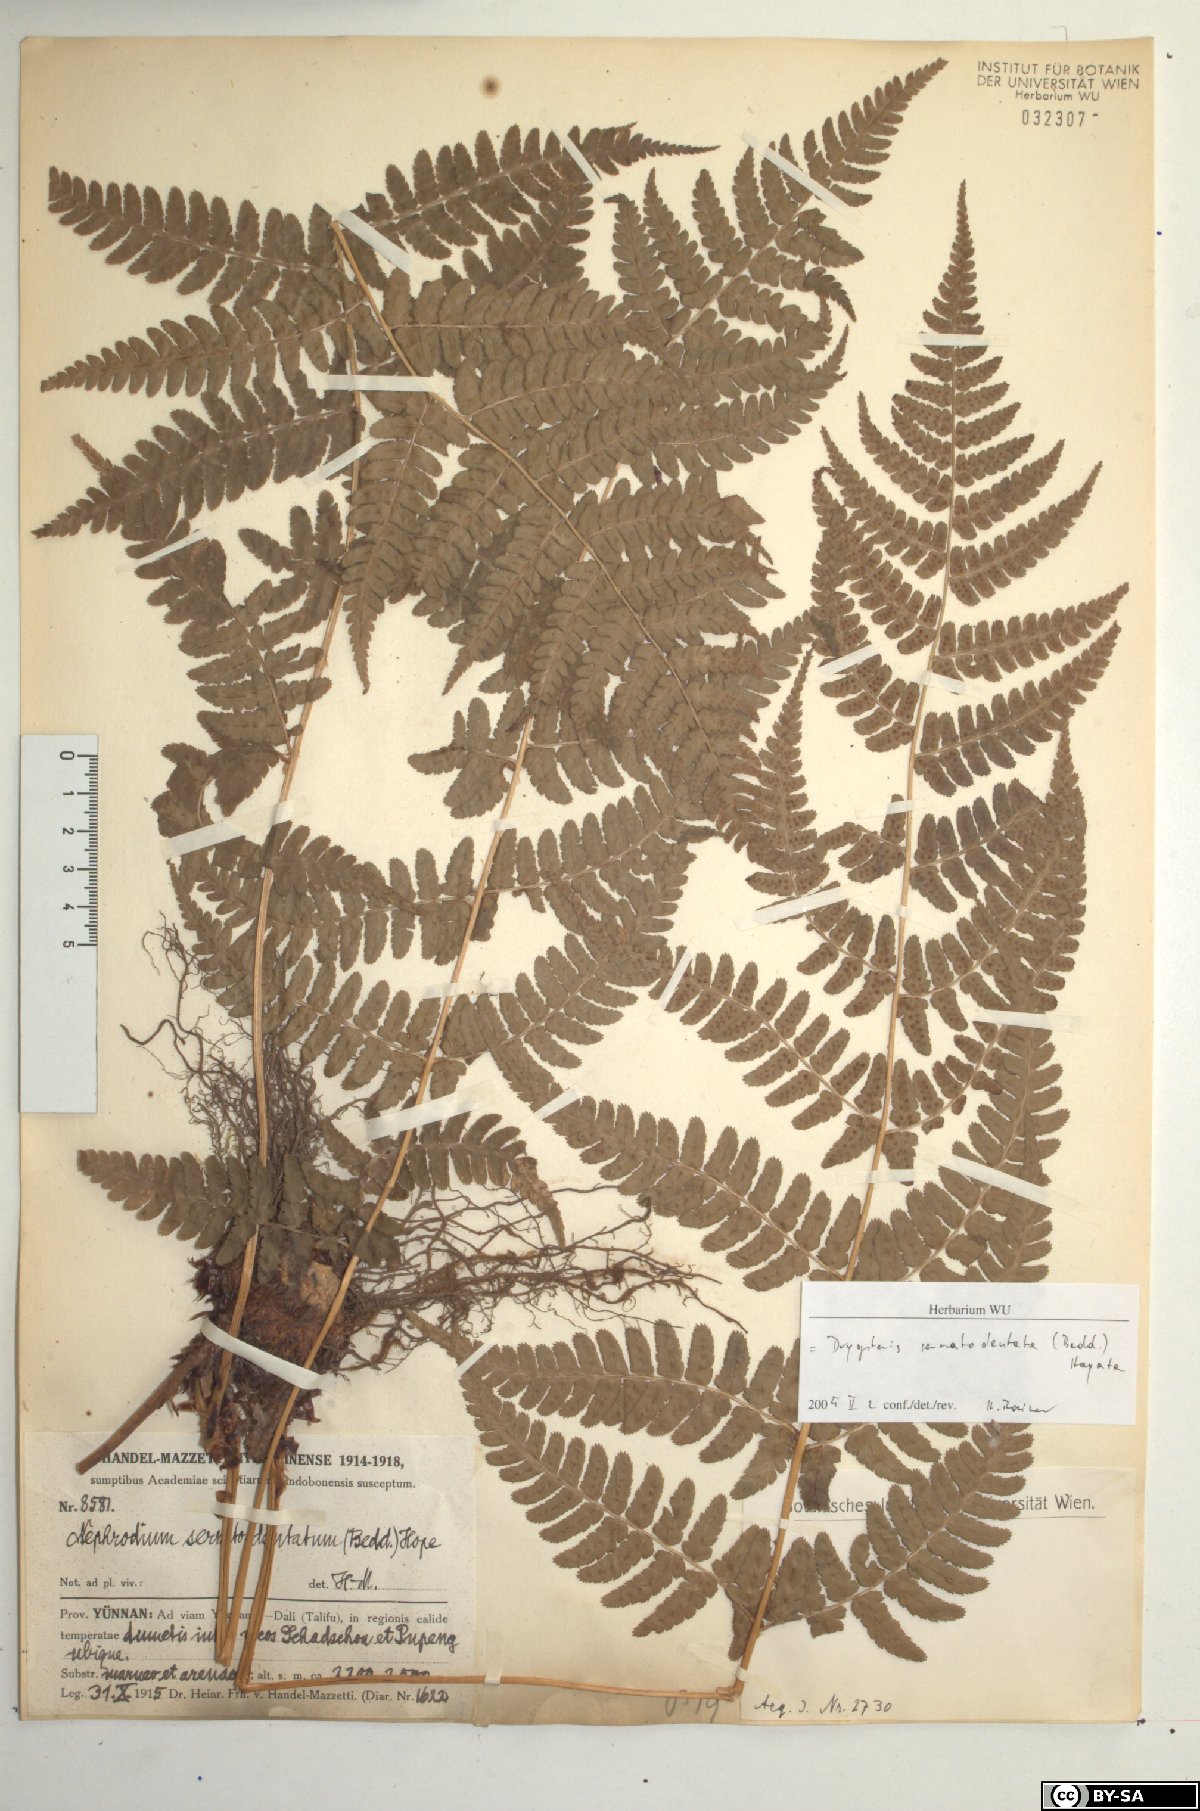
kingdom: Plantae
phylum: Tracheophyta
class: Polypodiopsida
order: Polypodiales
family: Dryopteridaceae
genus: Dryopteris
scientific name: Dryopteris serratodentata
